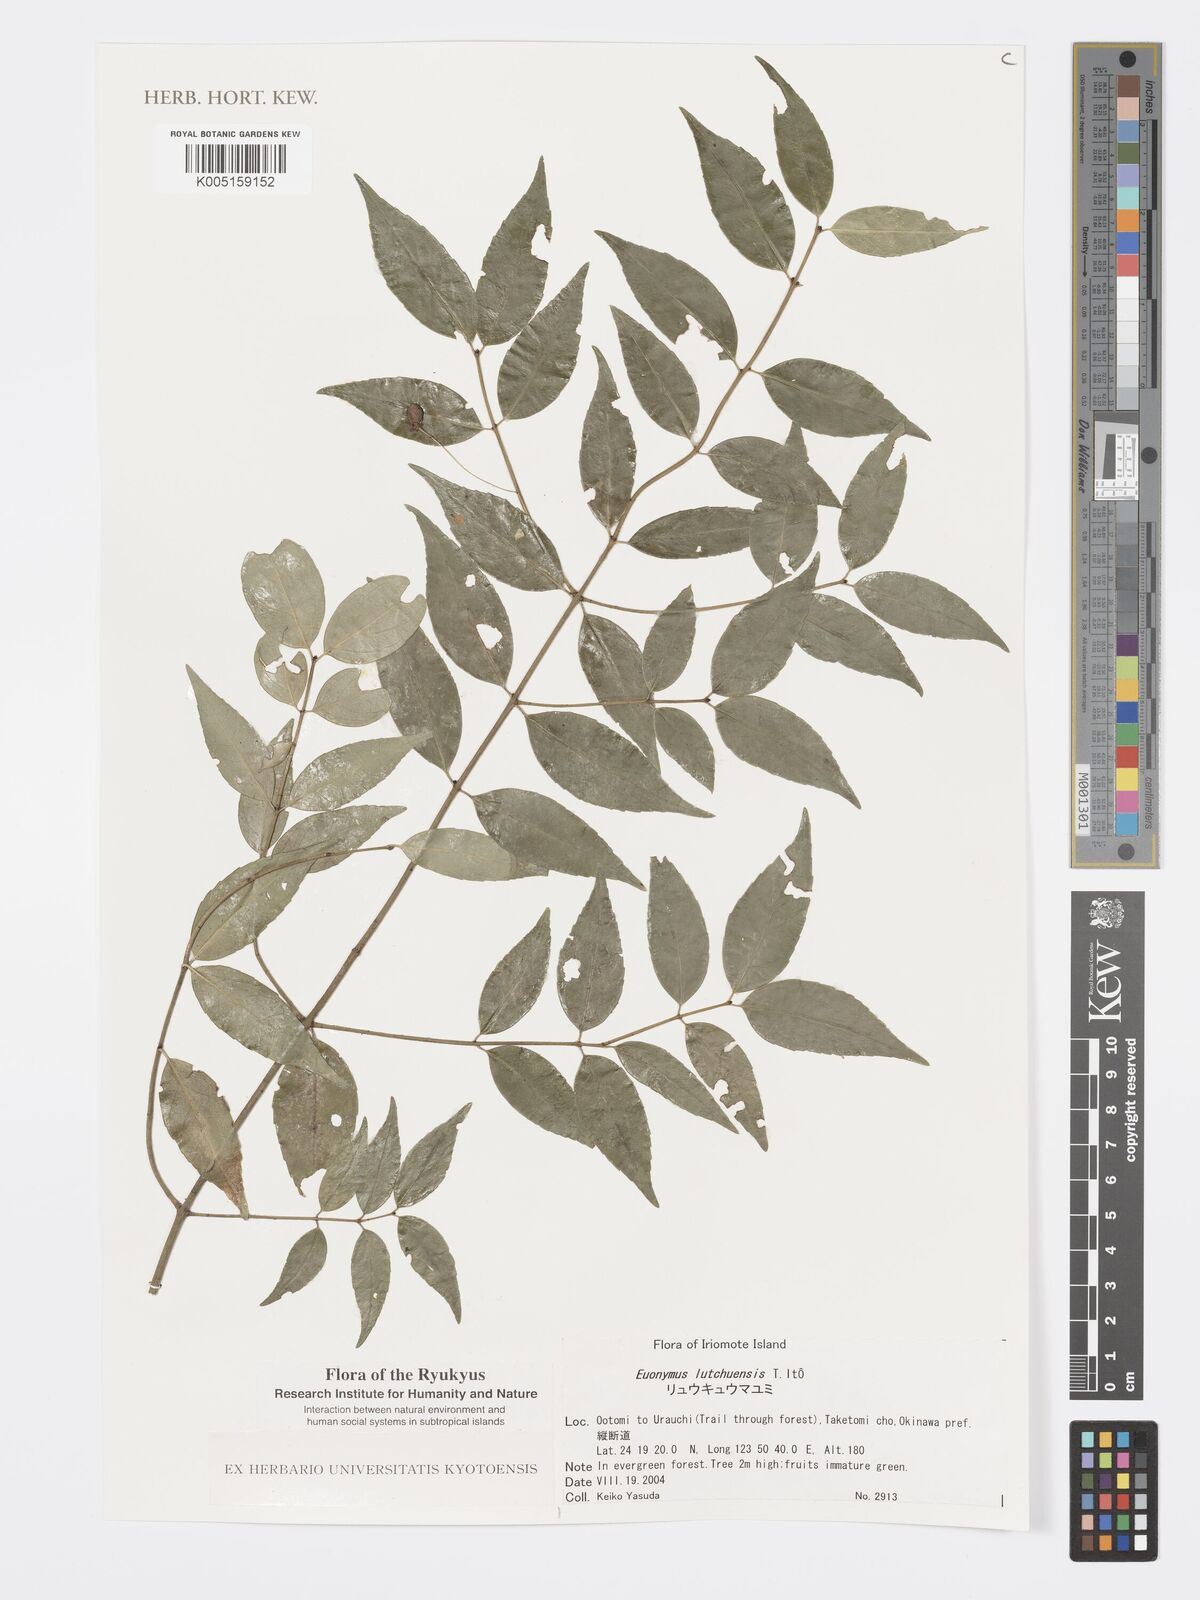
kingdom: Plantae
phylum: Tracheophyta
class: Magnoliopsida
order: Celastrales
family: Celastraceae
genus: Euonymus
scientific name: Euonymus lutchuensis
